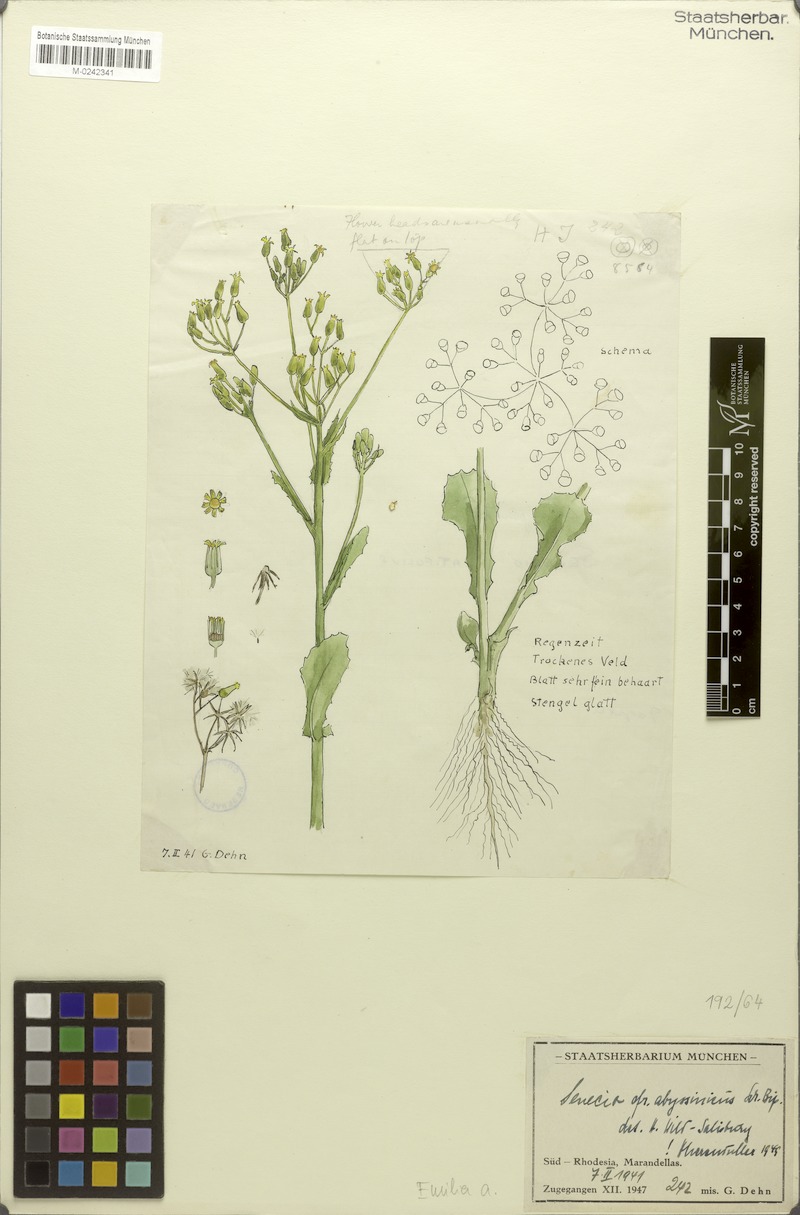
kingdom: Plantae
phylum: Tracheophyta
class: Magnoliopsida
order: Asterales
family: Asteraceae
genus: Emilia
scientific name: Emilia abyssinica
